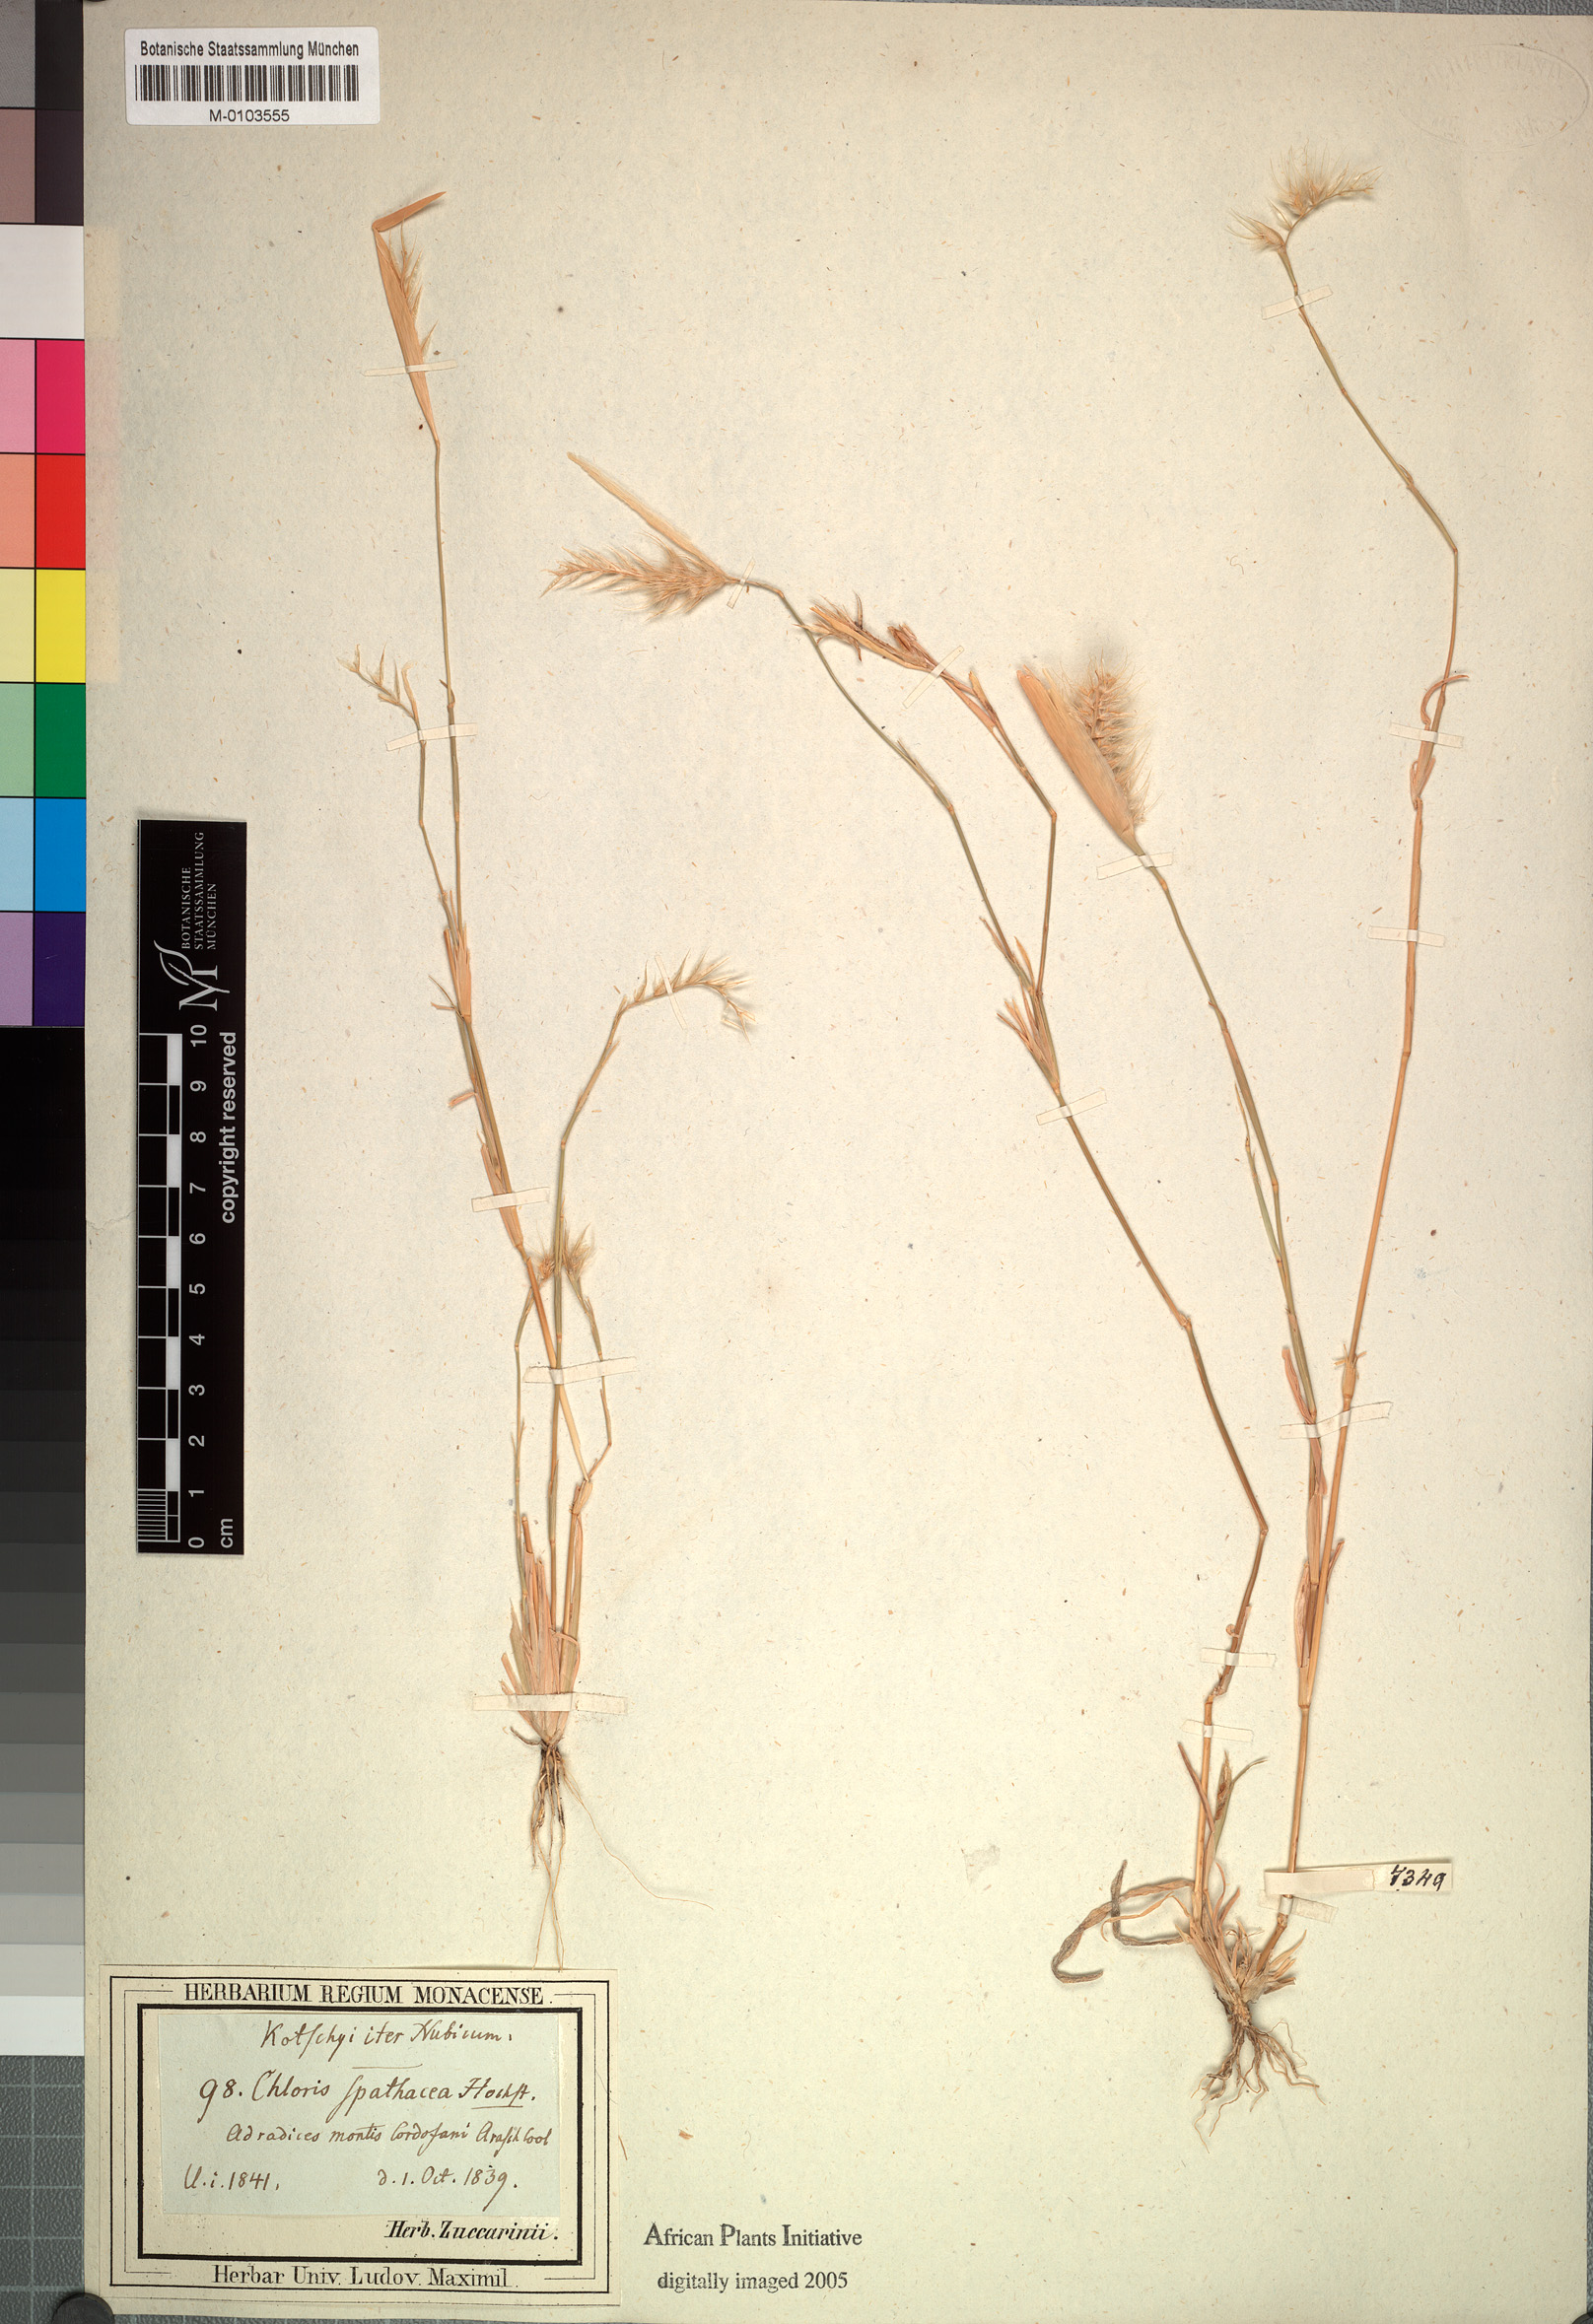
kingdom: Plantae
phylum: Tracheophyta
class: Liliopsida
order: Poales
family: Poaceae
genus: Tetrapogon
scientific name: Tetrapogon cenchriformis
